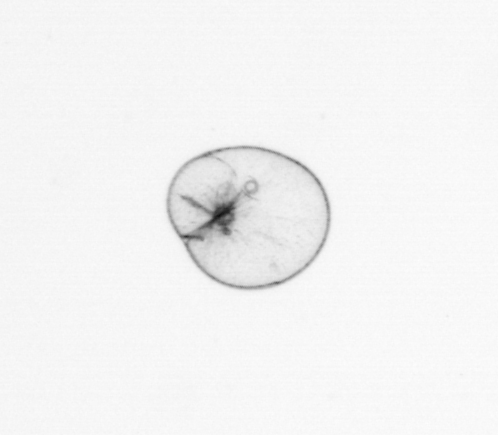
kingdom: Chromista
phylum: Myzozoa
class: Dinophyceae
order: Noctilucales
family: Noctilucaceae
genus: Noctiluca
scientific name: Noctiluca scintillans
